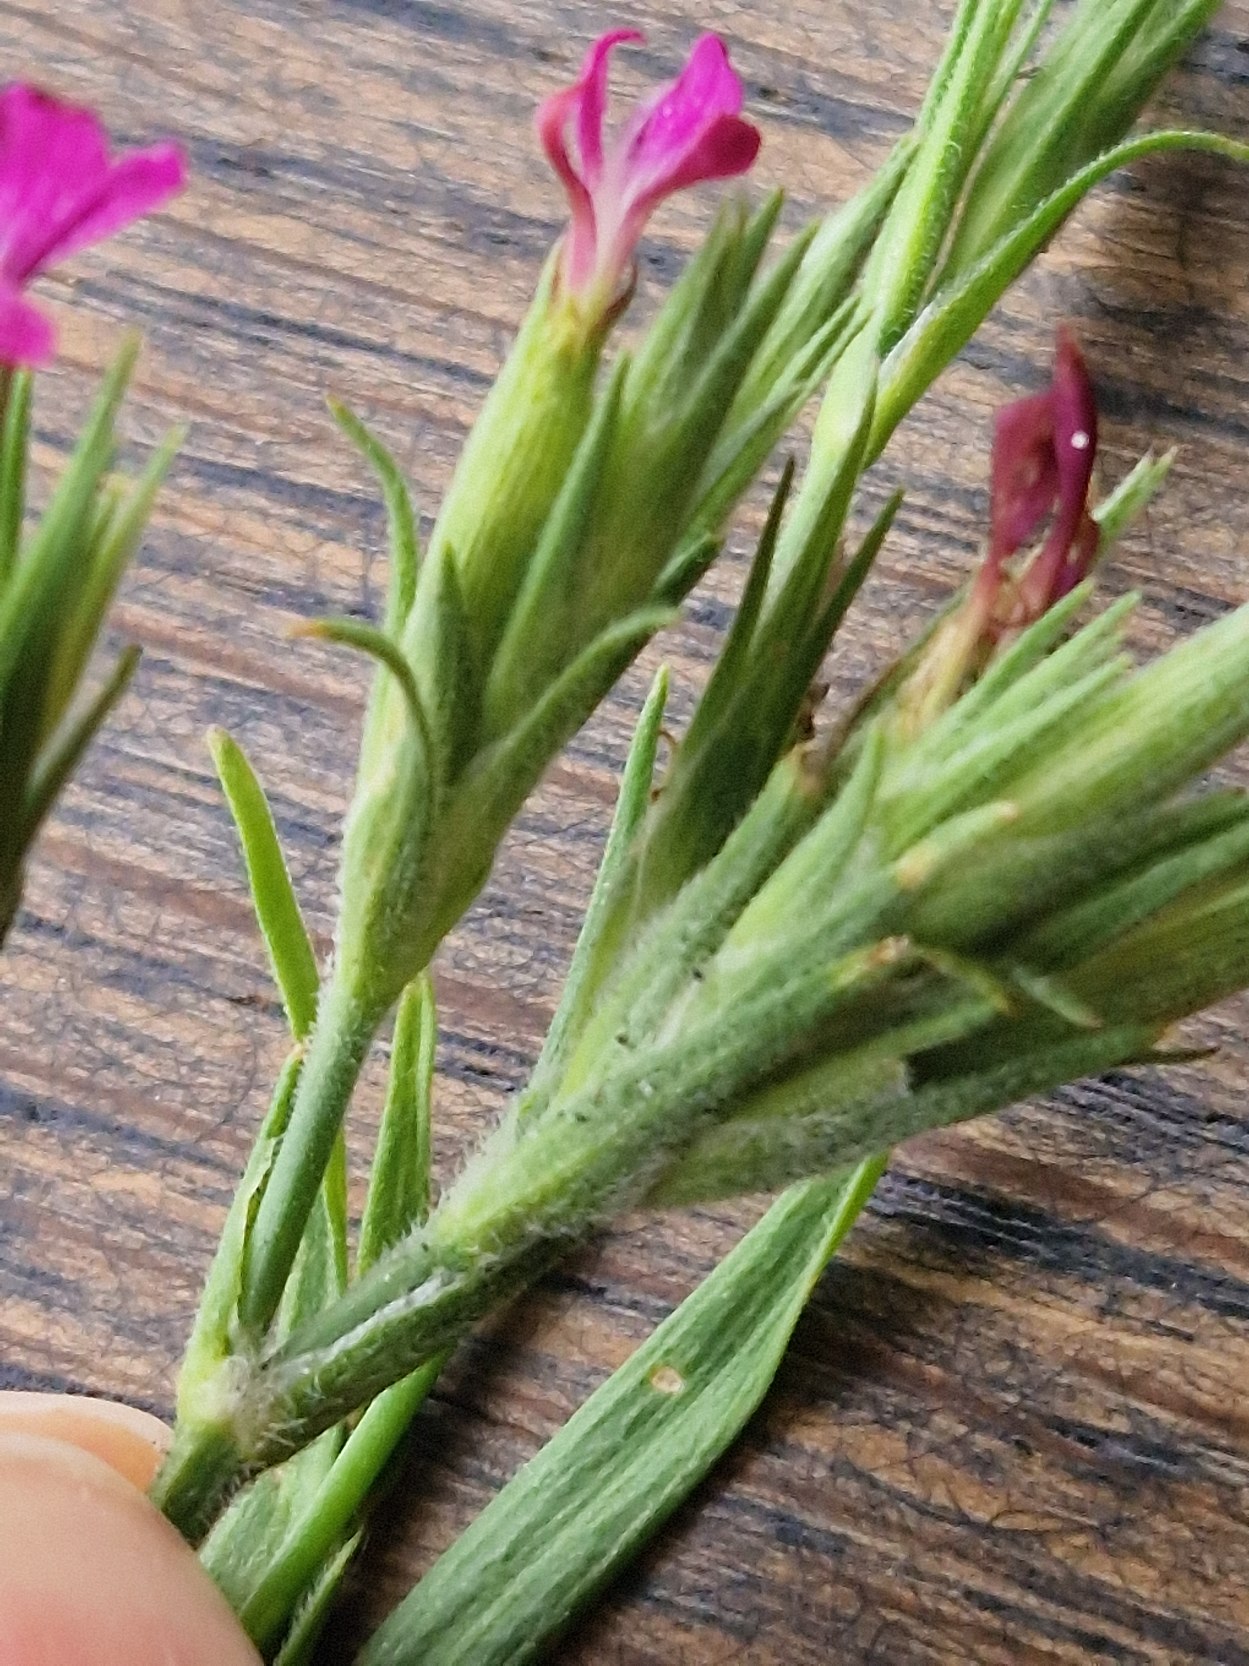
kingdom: Plantae
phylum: Tracheophyta
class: Magnoliopsida
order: Caryophyllales
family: Caryophyllaceae
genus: Dianthus
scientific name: Dianthus armeria
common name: Kost-nellike
